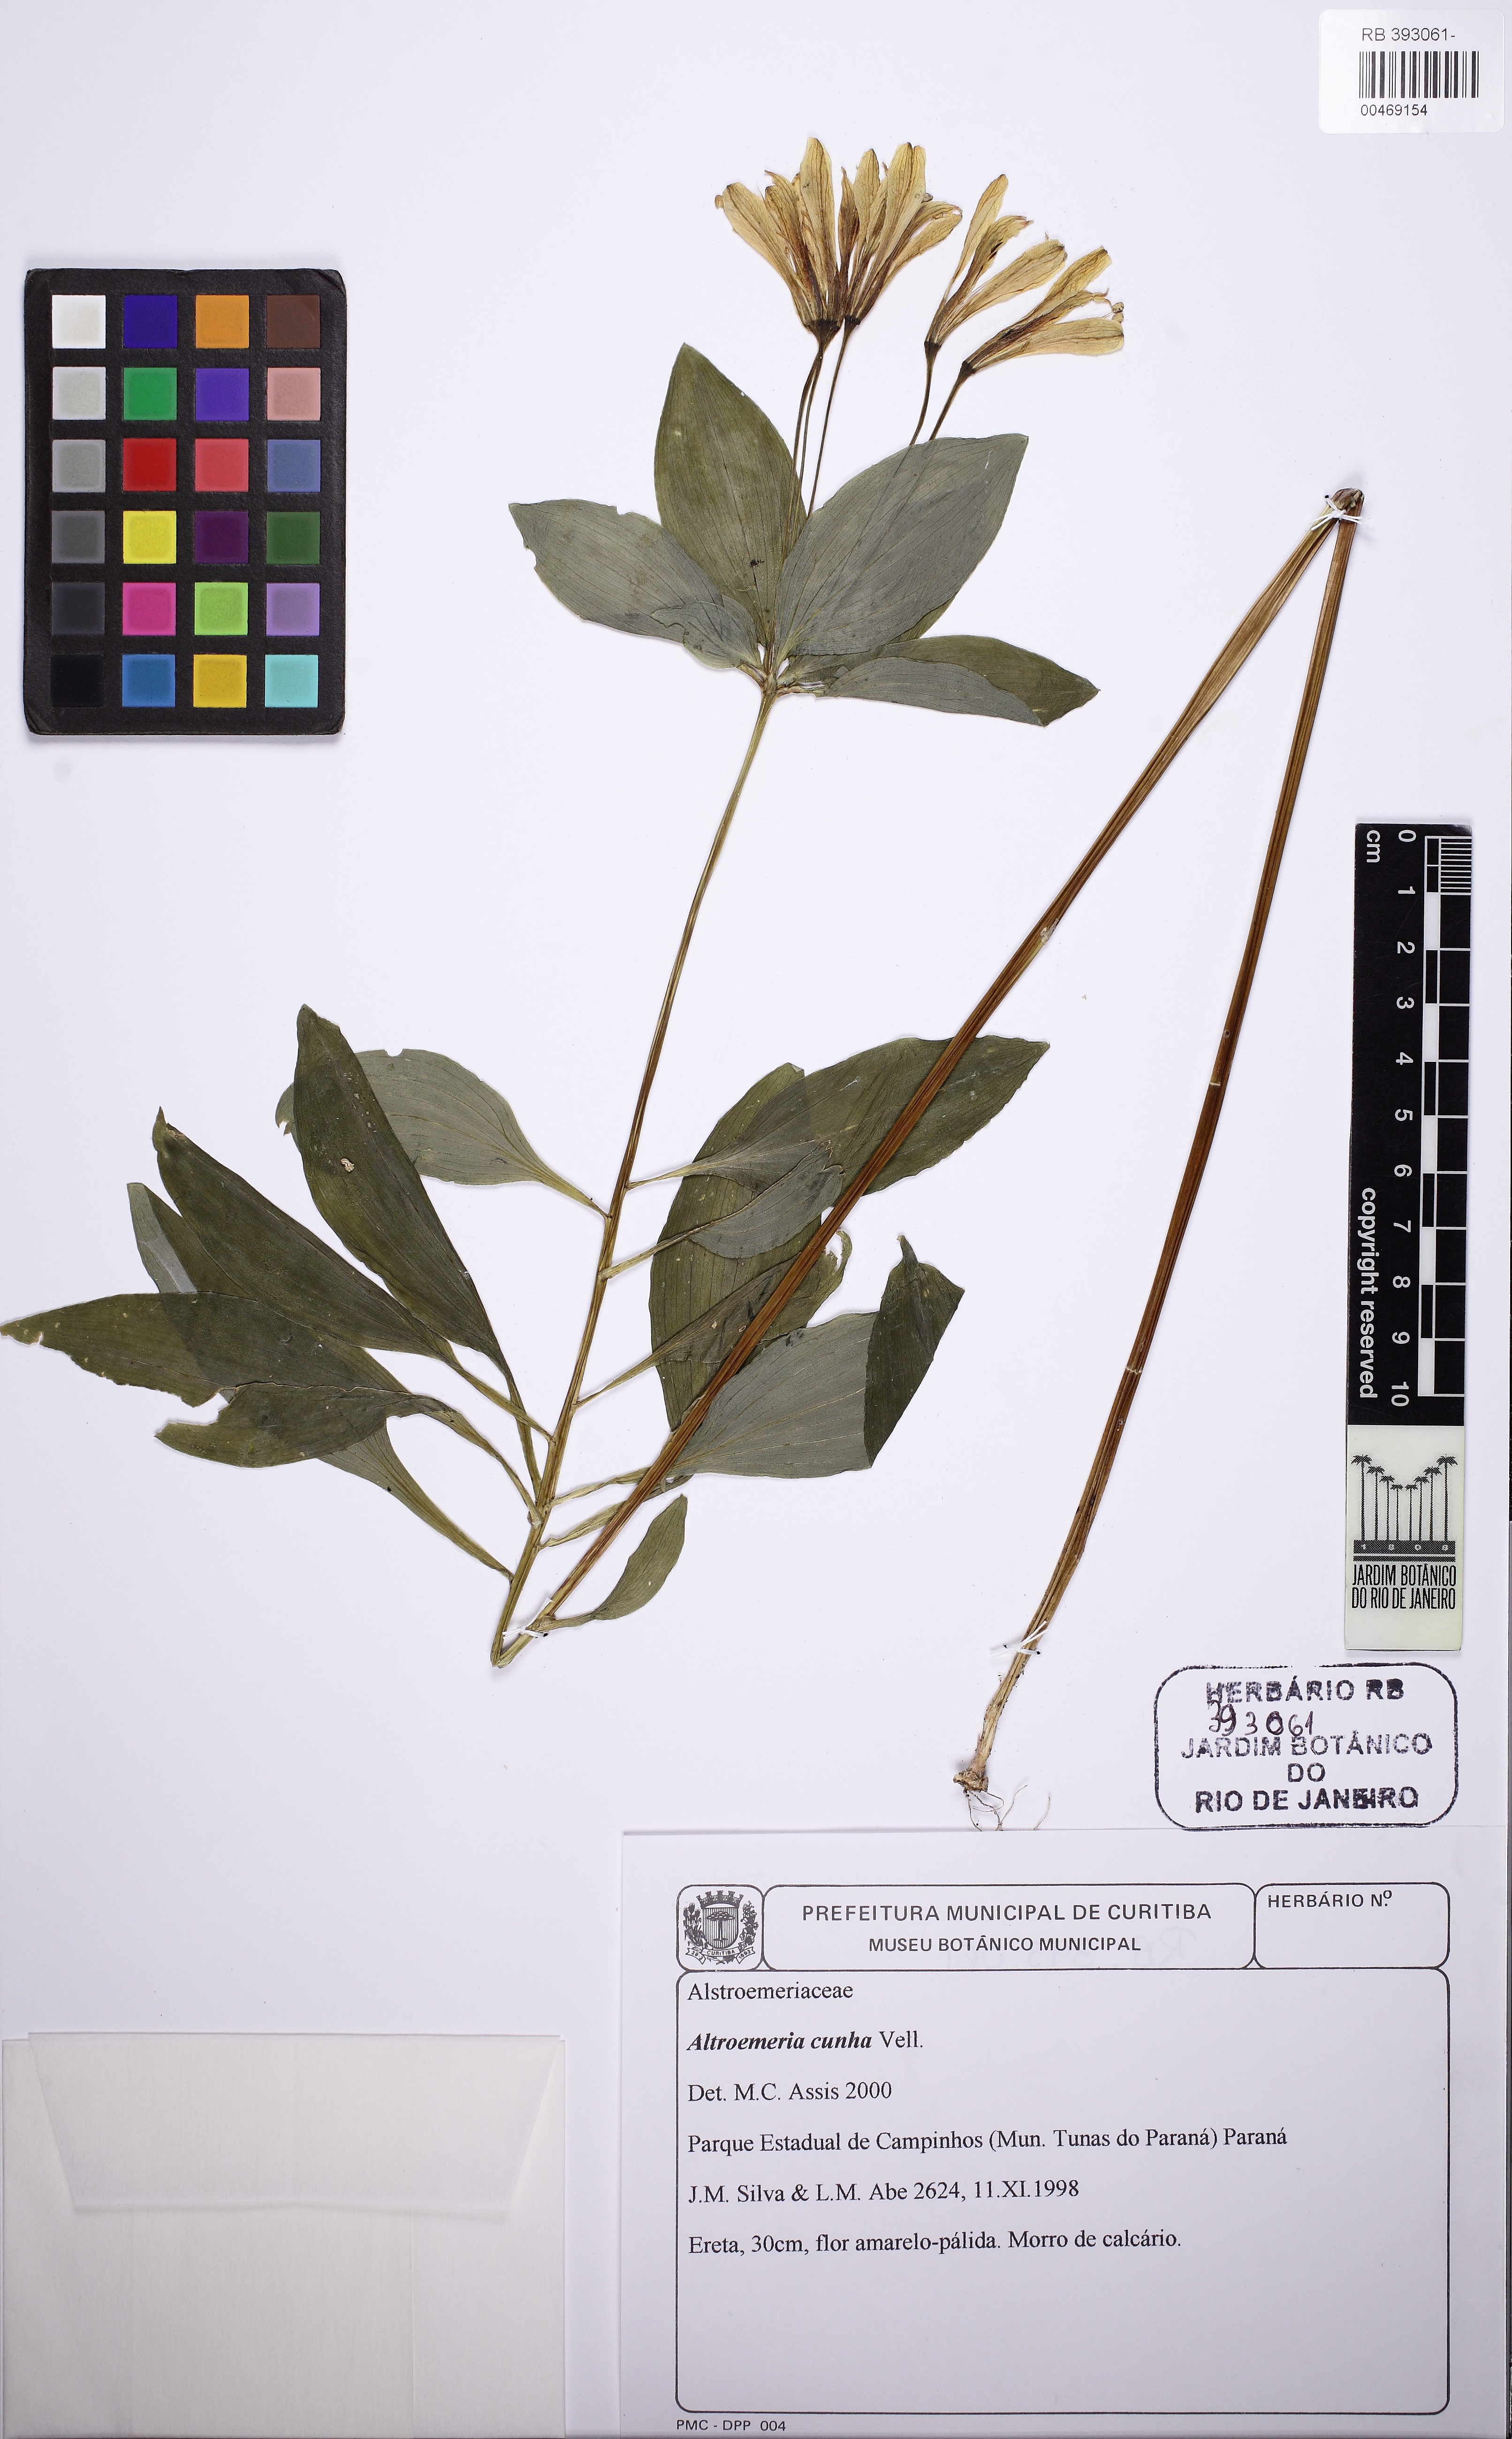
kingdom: Plantae
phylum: Tracheophyta
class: Liliopsida
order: Liliales
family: Alstroemeriaceae
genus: Alstroemeria
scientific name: Alstroemeria cunha
